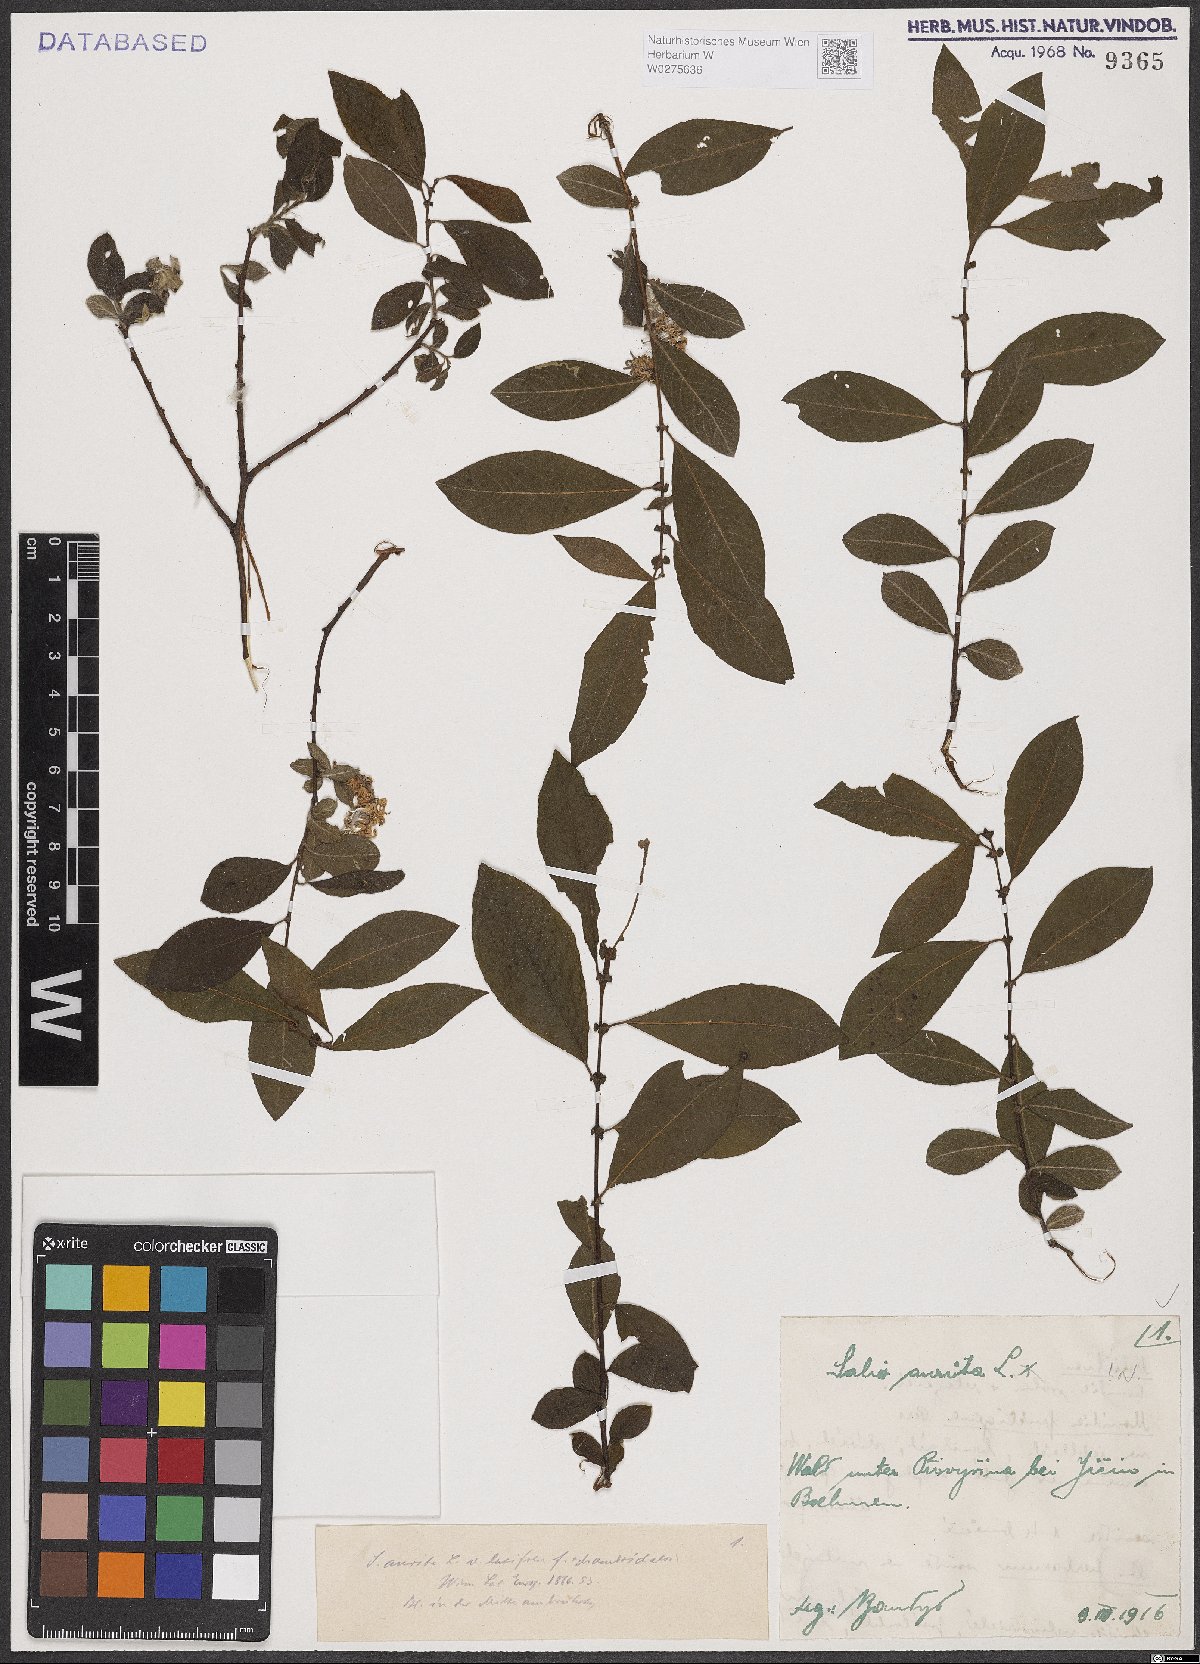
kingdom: Plantae
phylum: Tracheophyta
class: Magnoliopsida
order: Malpighiales
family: Salicaceae
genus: Salix
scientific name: Salix aurita
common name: Eared willow
